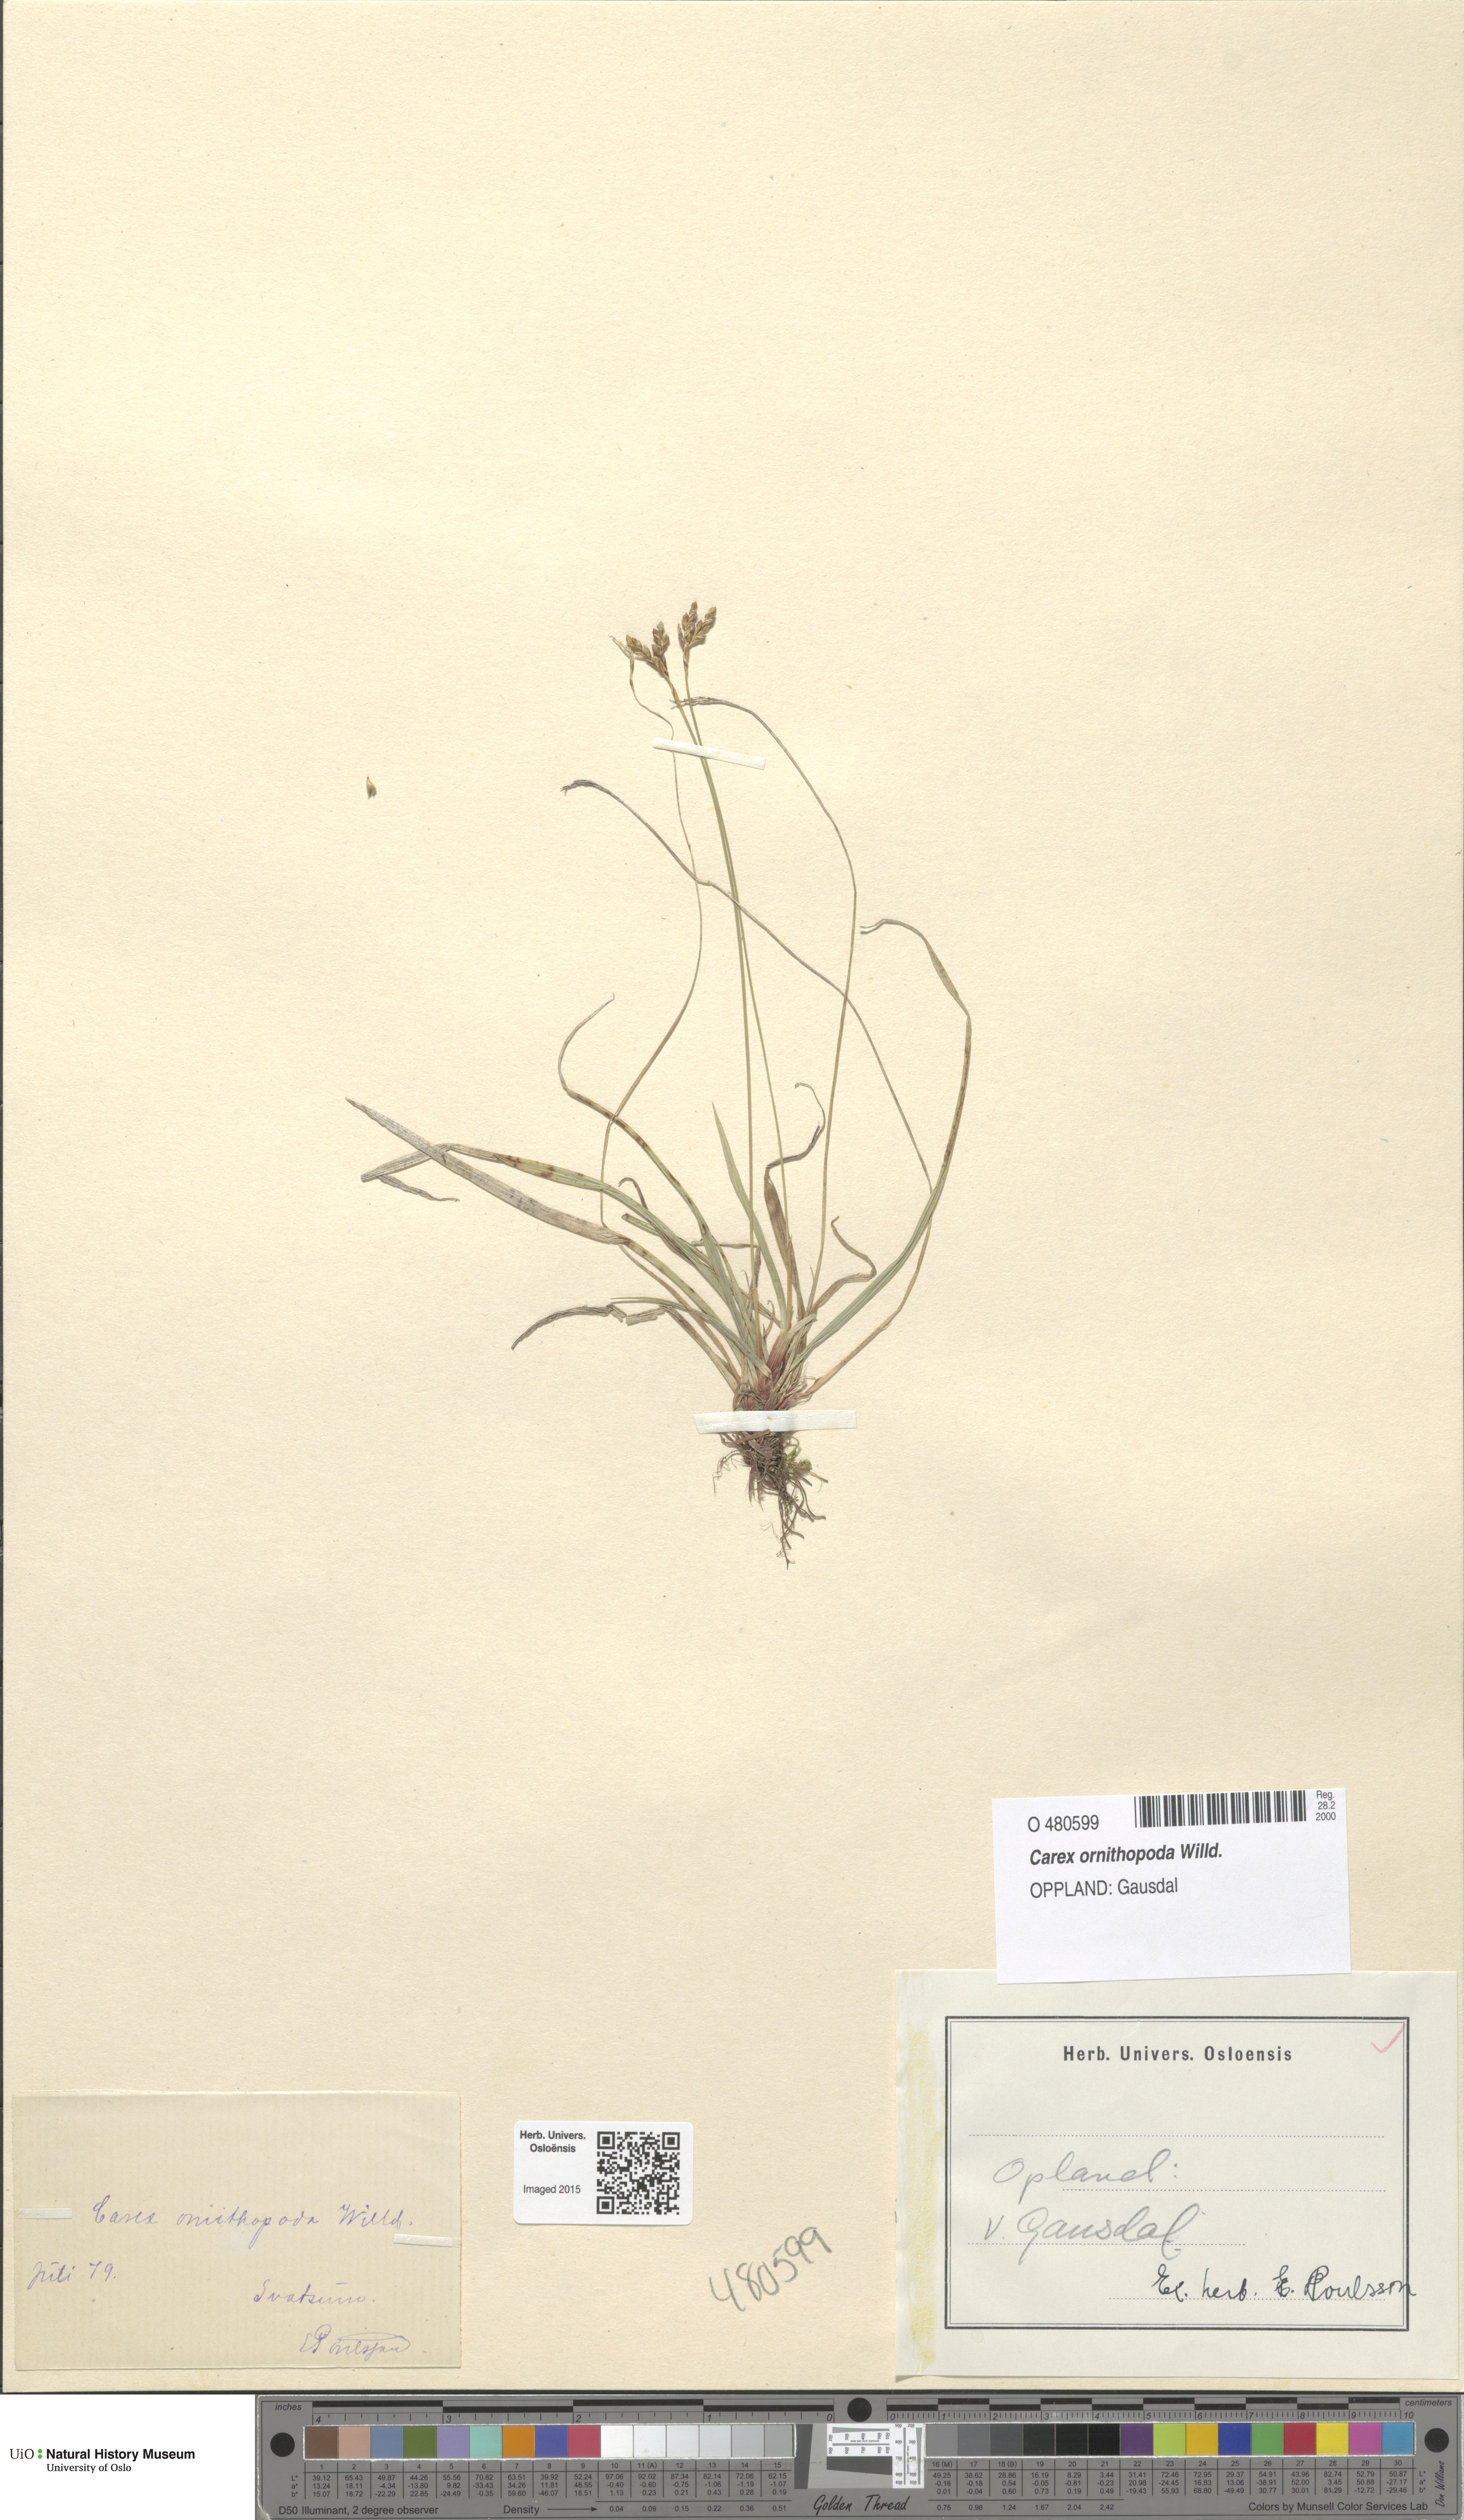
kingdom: Plantae
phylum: Tracheophyta
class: Liliopsida
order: Poales
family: Cyperaceae
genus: Carex
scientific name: Carex ornithopoda
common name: Bird's-foot sedge
